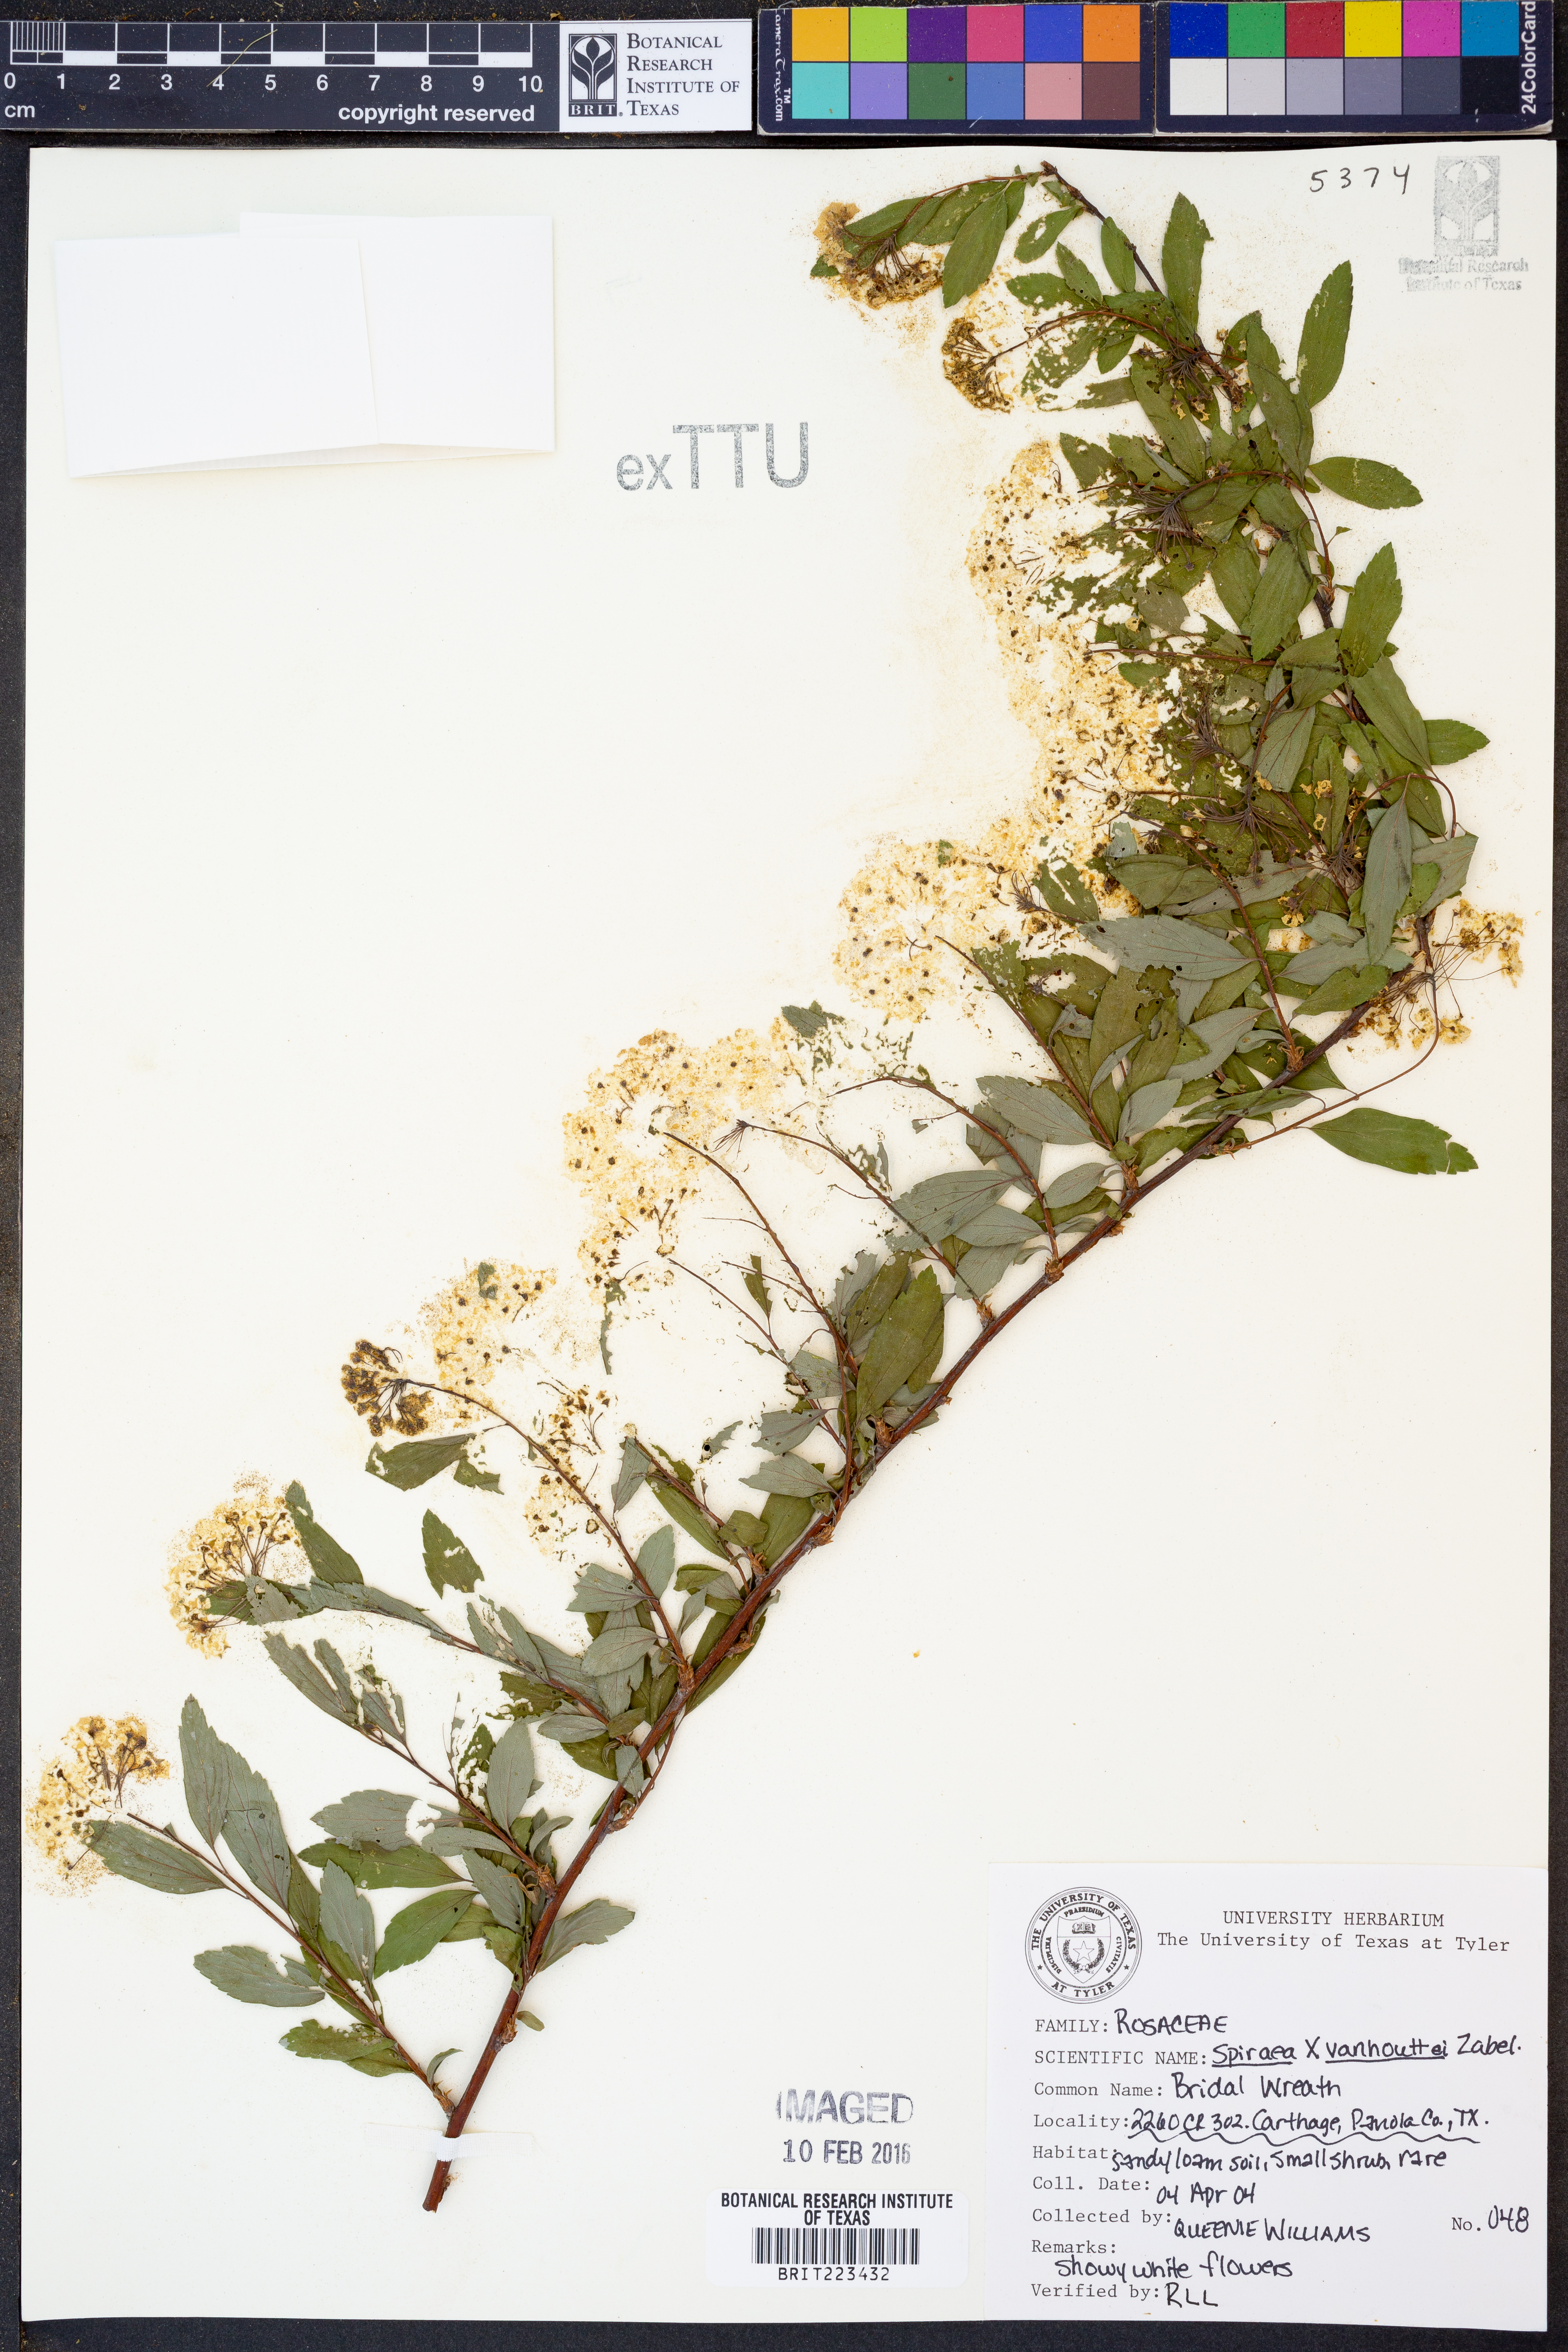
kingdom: Plantae
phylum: Tracheophyta
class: Magnoliopsida
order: Rosales
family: Rosaceae
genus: Spiraea
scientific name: Spiraea
